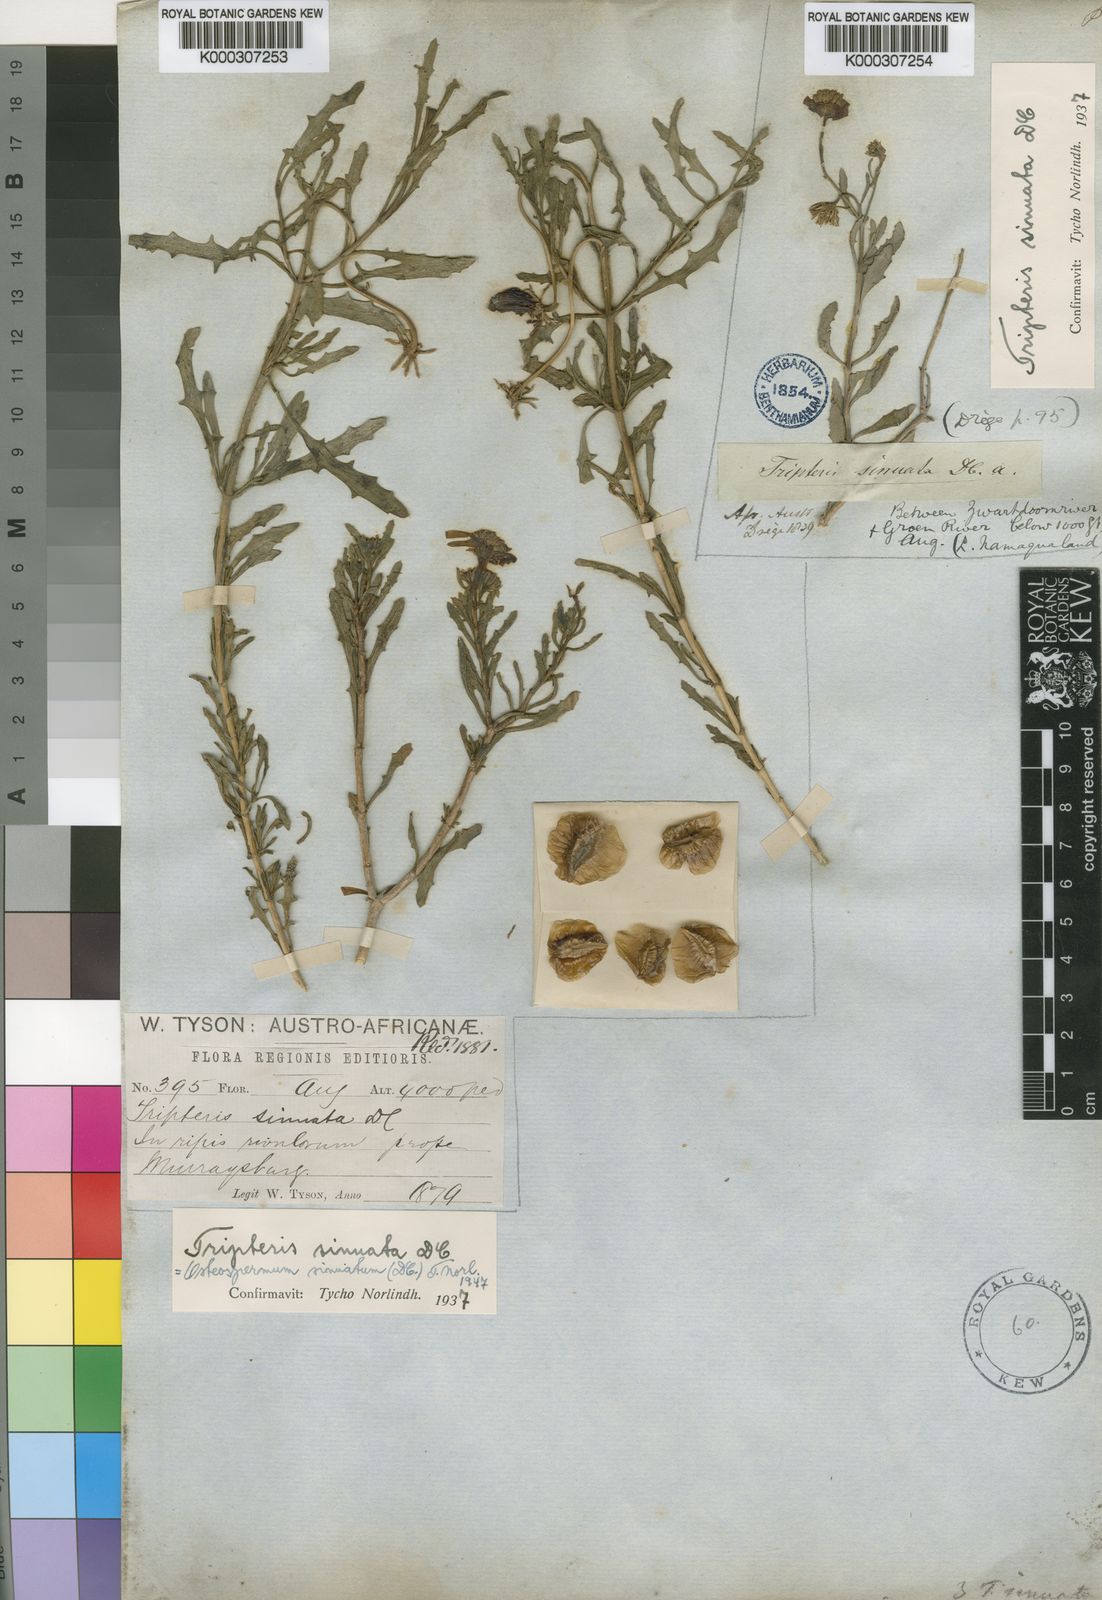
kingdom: Plantae
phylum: Tracheophyta
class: Magnoliopsida
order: Asterales
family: Asteraceae
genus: Osteospermum
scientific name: Osteospermum sinuatum
